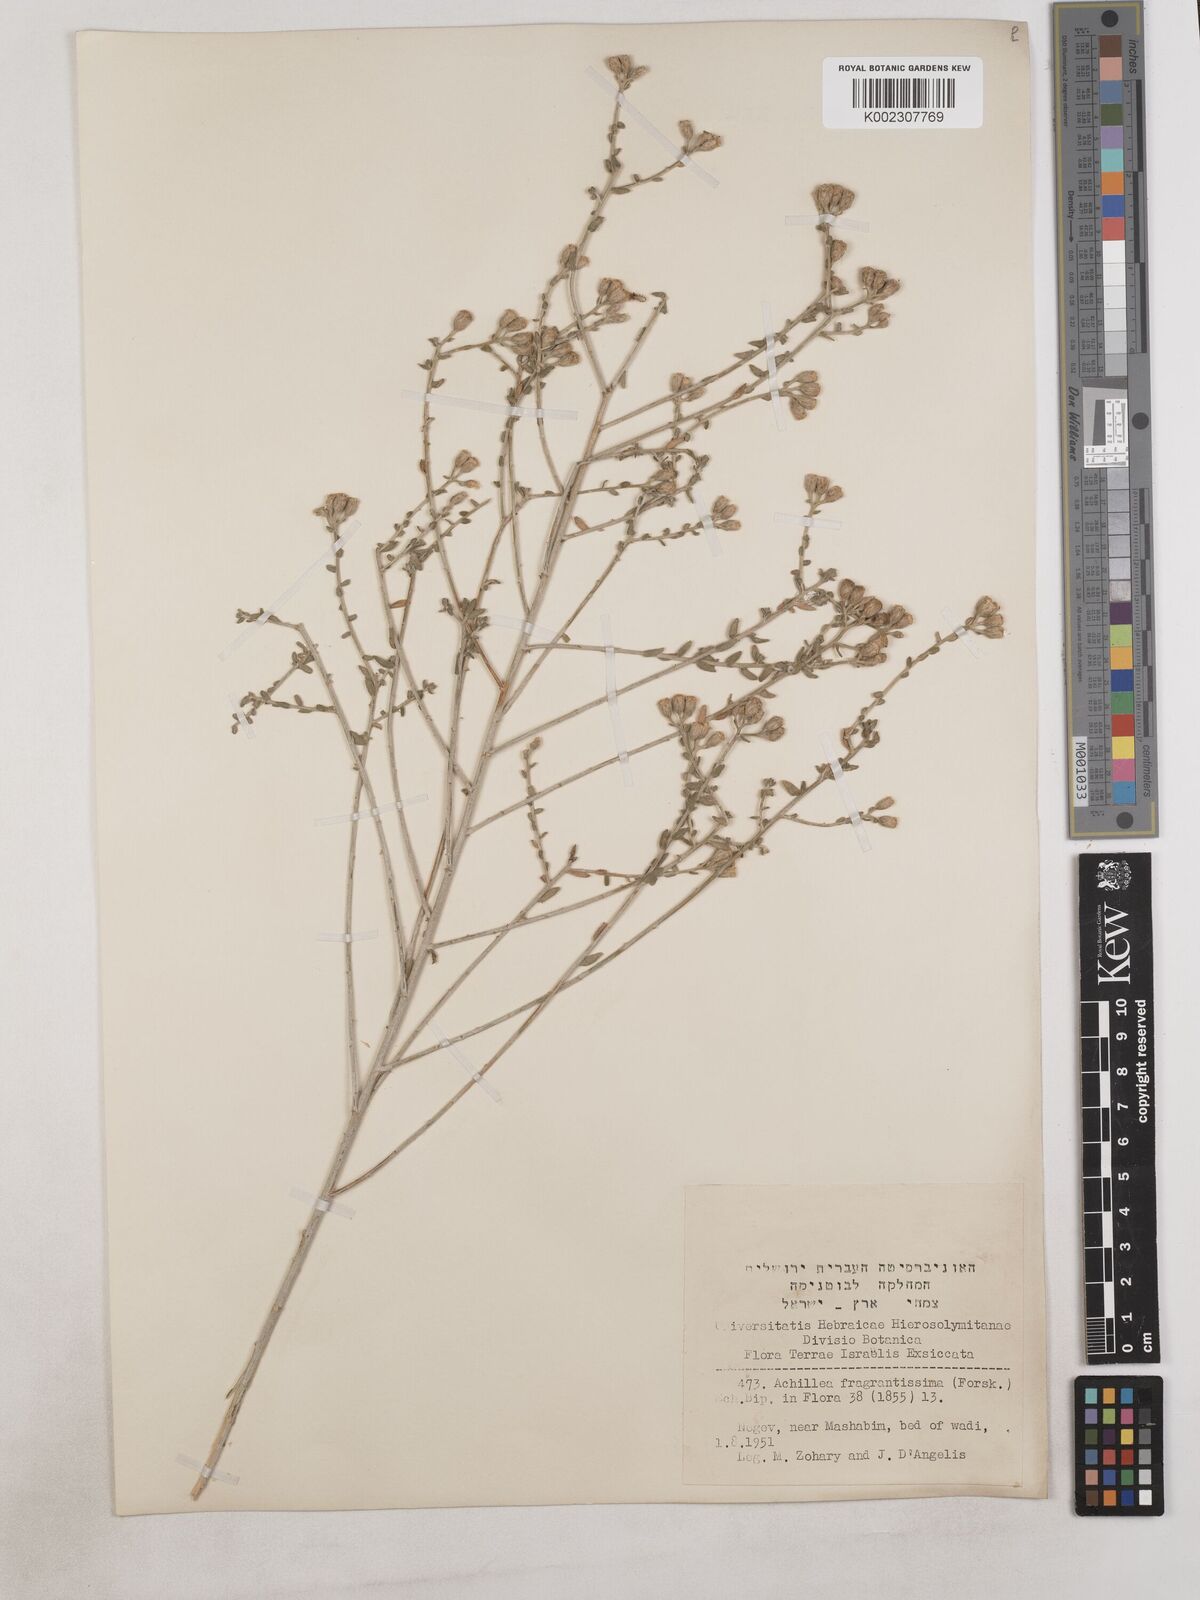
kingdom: Plantae
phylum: Tracheophyta
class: Magnoliopsida
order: Asterales
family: Asteraceae
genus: Achillea
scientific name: Achillea fragrantissima
